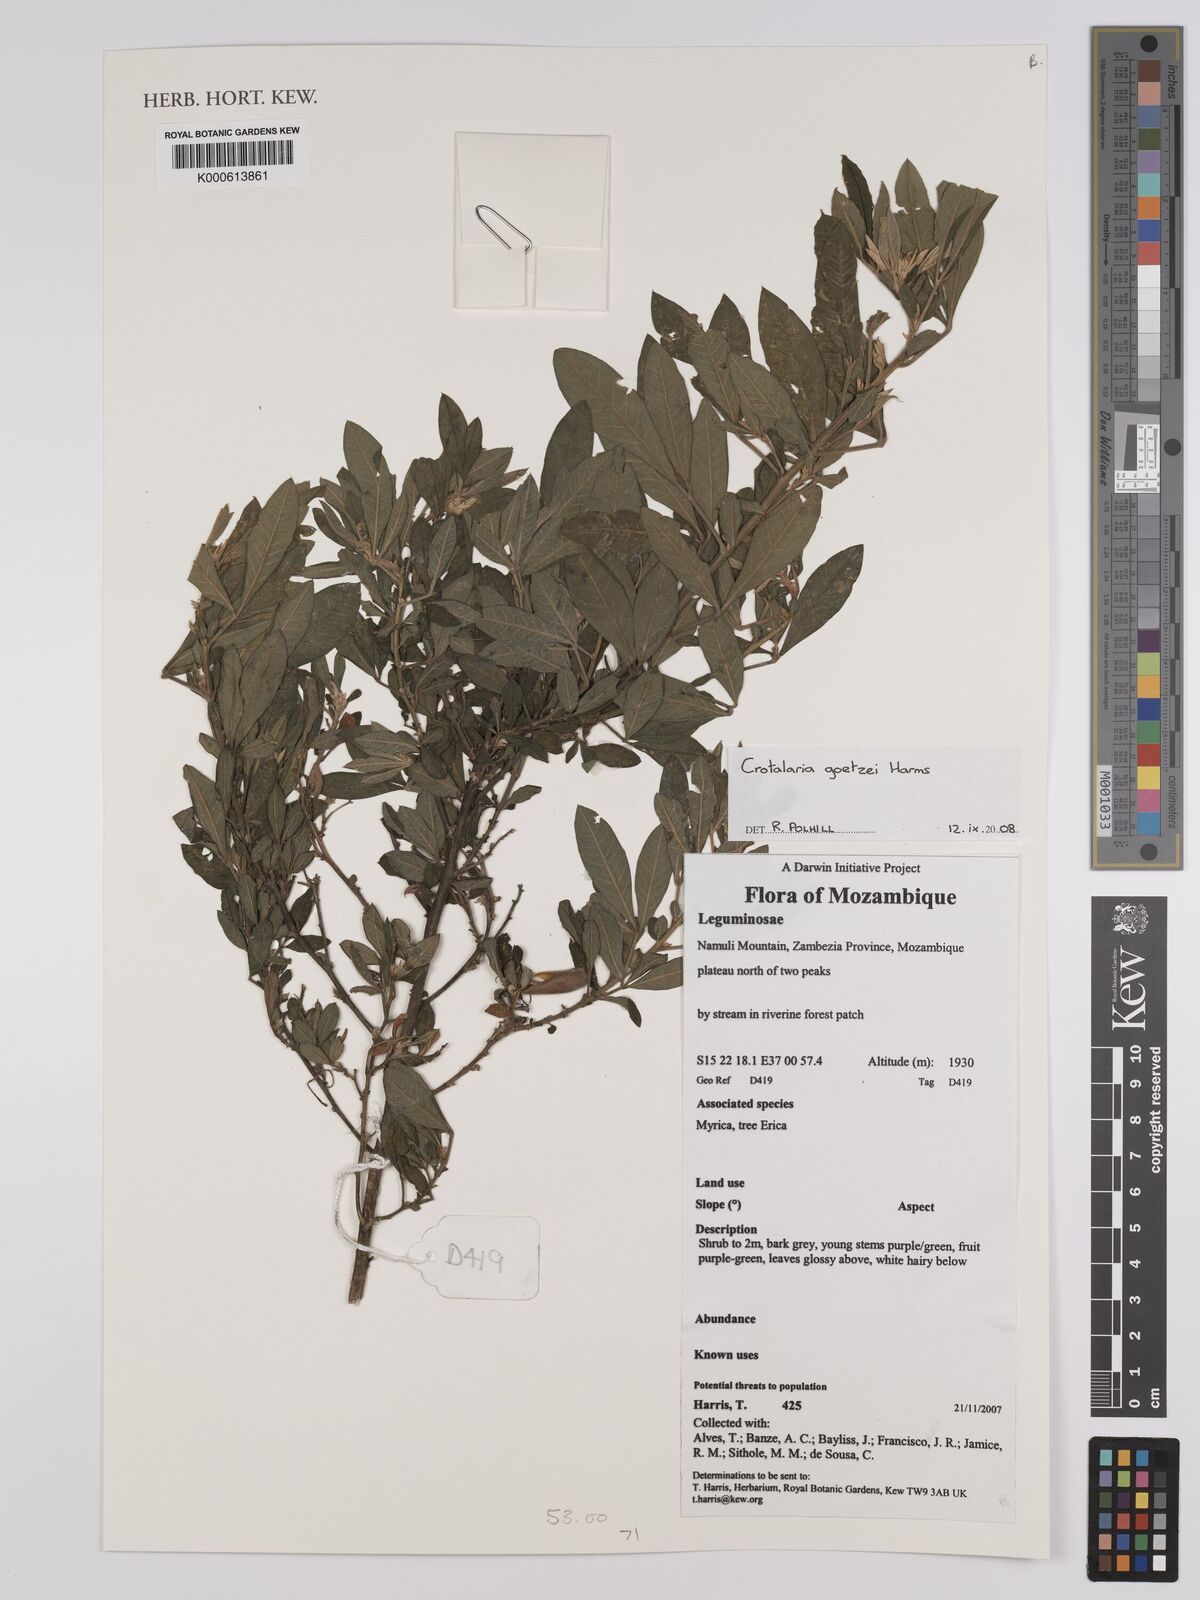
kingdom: Plantae
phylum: Tracheophyta
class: Magnoliopsida
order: Fabales
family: Fabaceae
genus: Crotalaria
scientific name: Crotalaria goetzei
